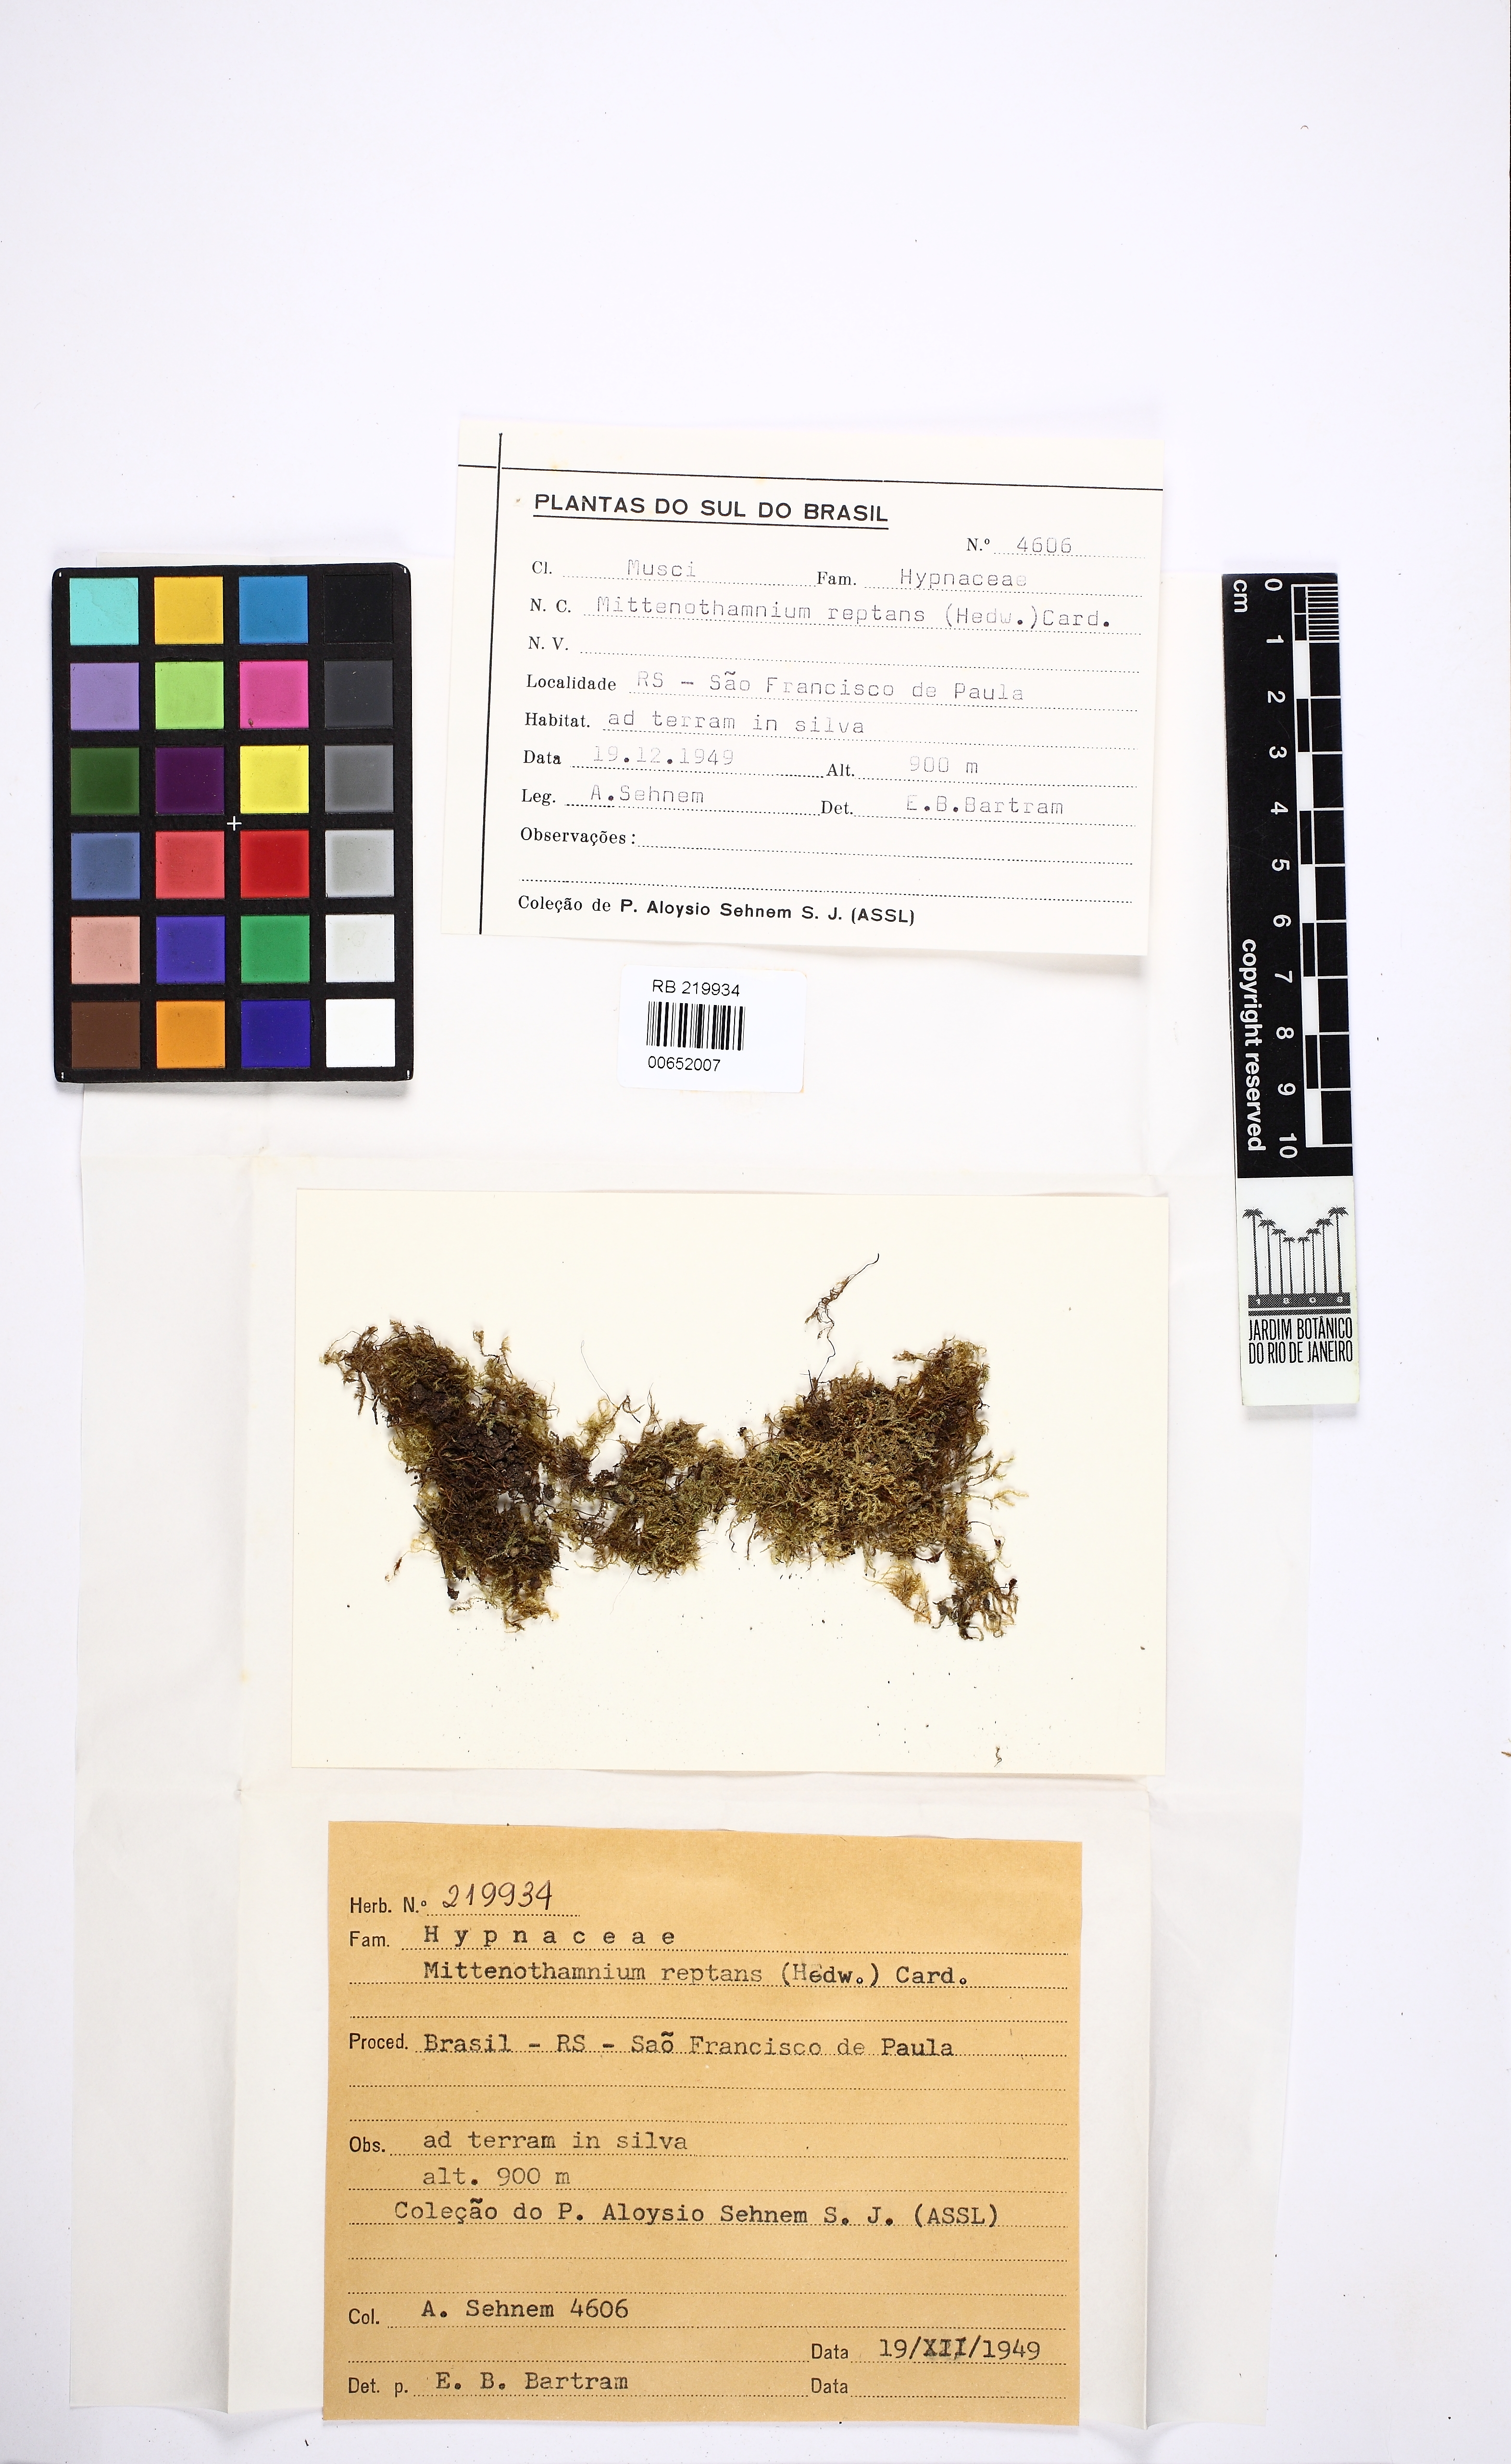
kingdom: Plantae
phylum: Bryophyta
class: Bryopsida
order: Hypnales
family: Hypnaceae
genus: Mittenothamnium
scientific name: Mittenothamnium
